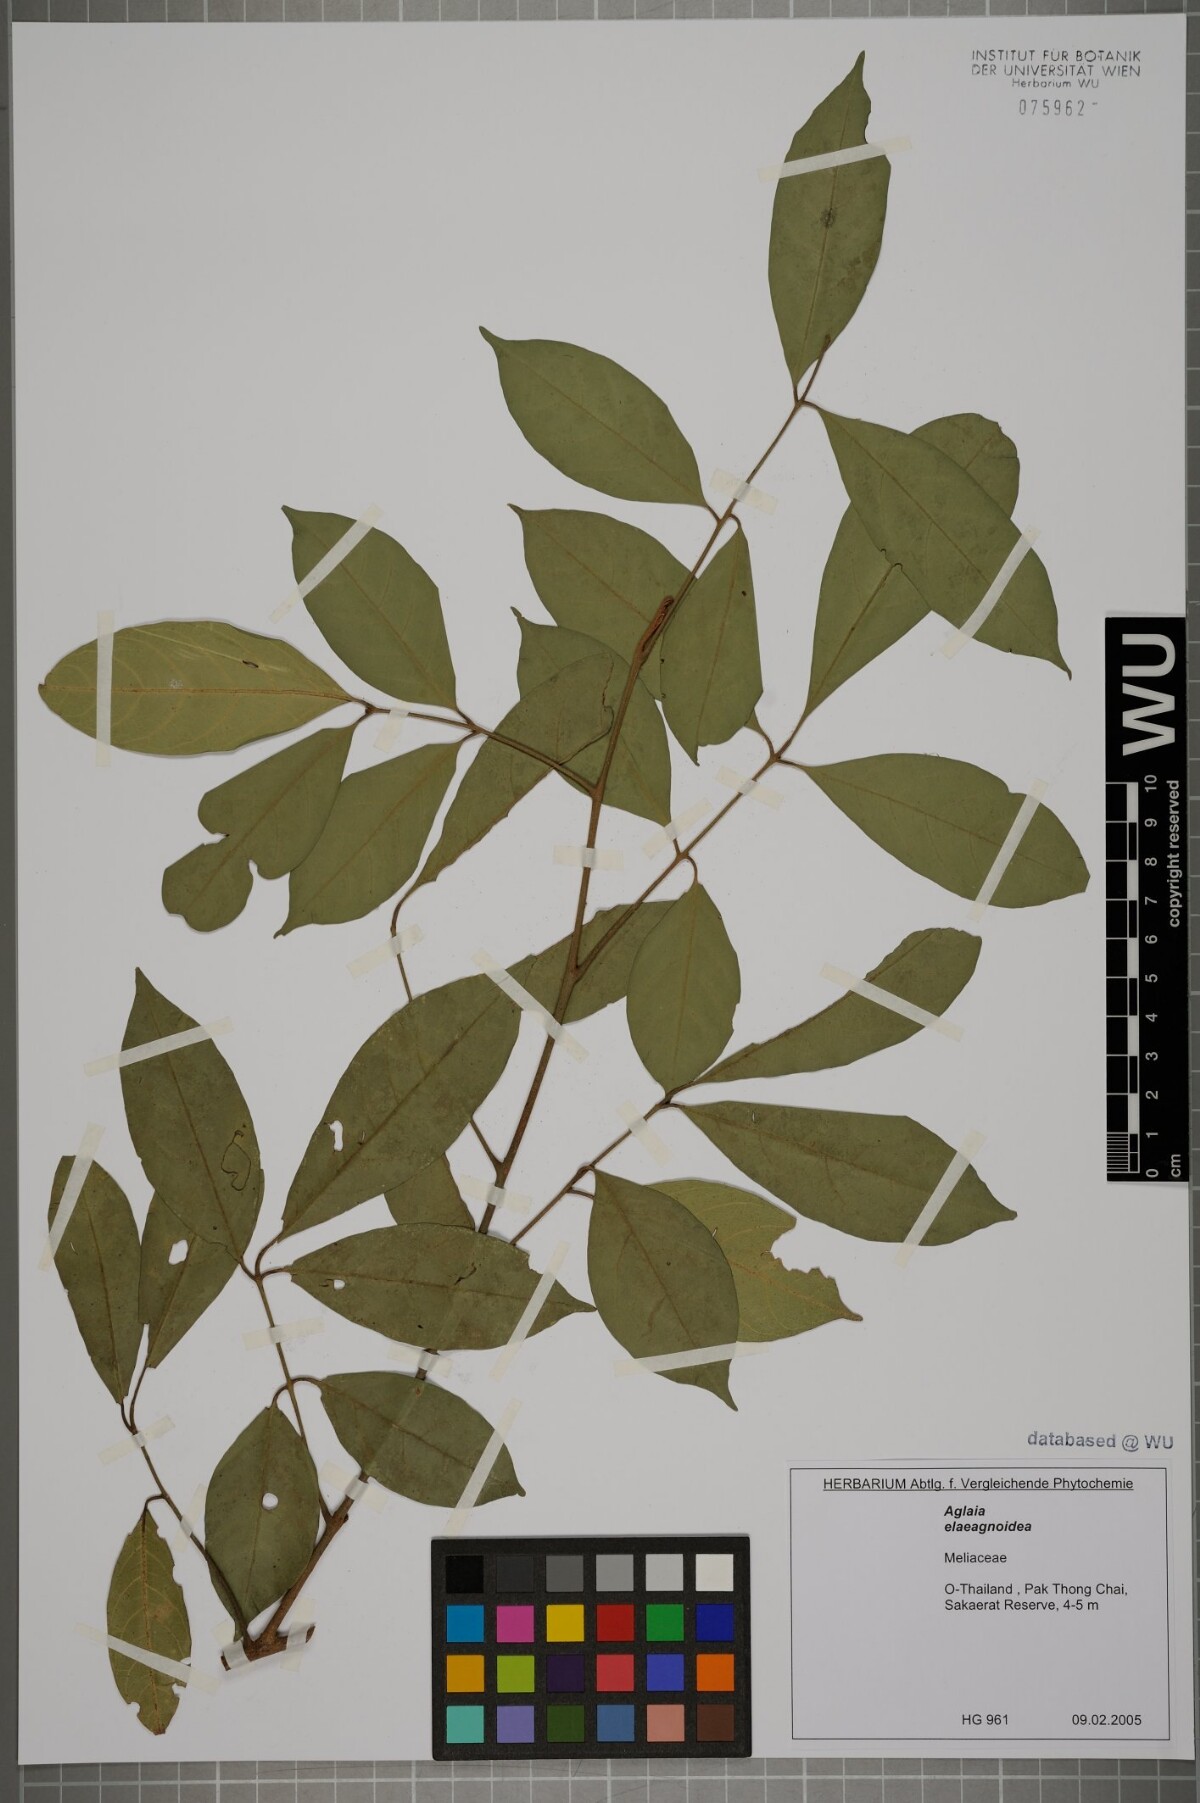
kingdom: Plantae
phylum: Tracheophyta
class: Magnoliopsida
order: Sapindales
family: Meliaceae
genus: Aglaia
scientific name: Aglaia elaeagnoidea
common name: Droopyleaf
